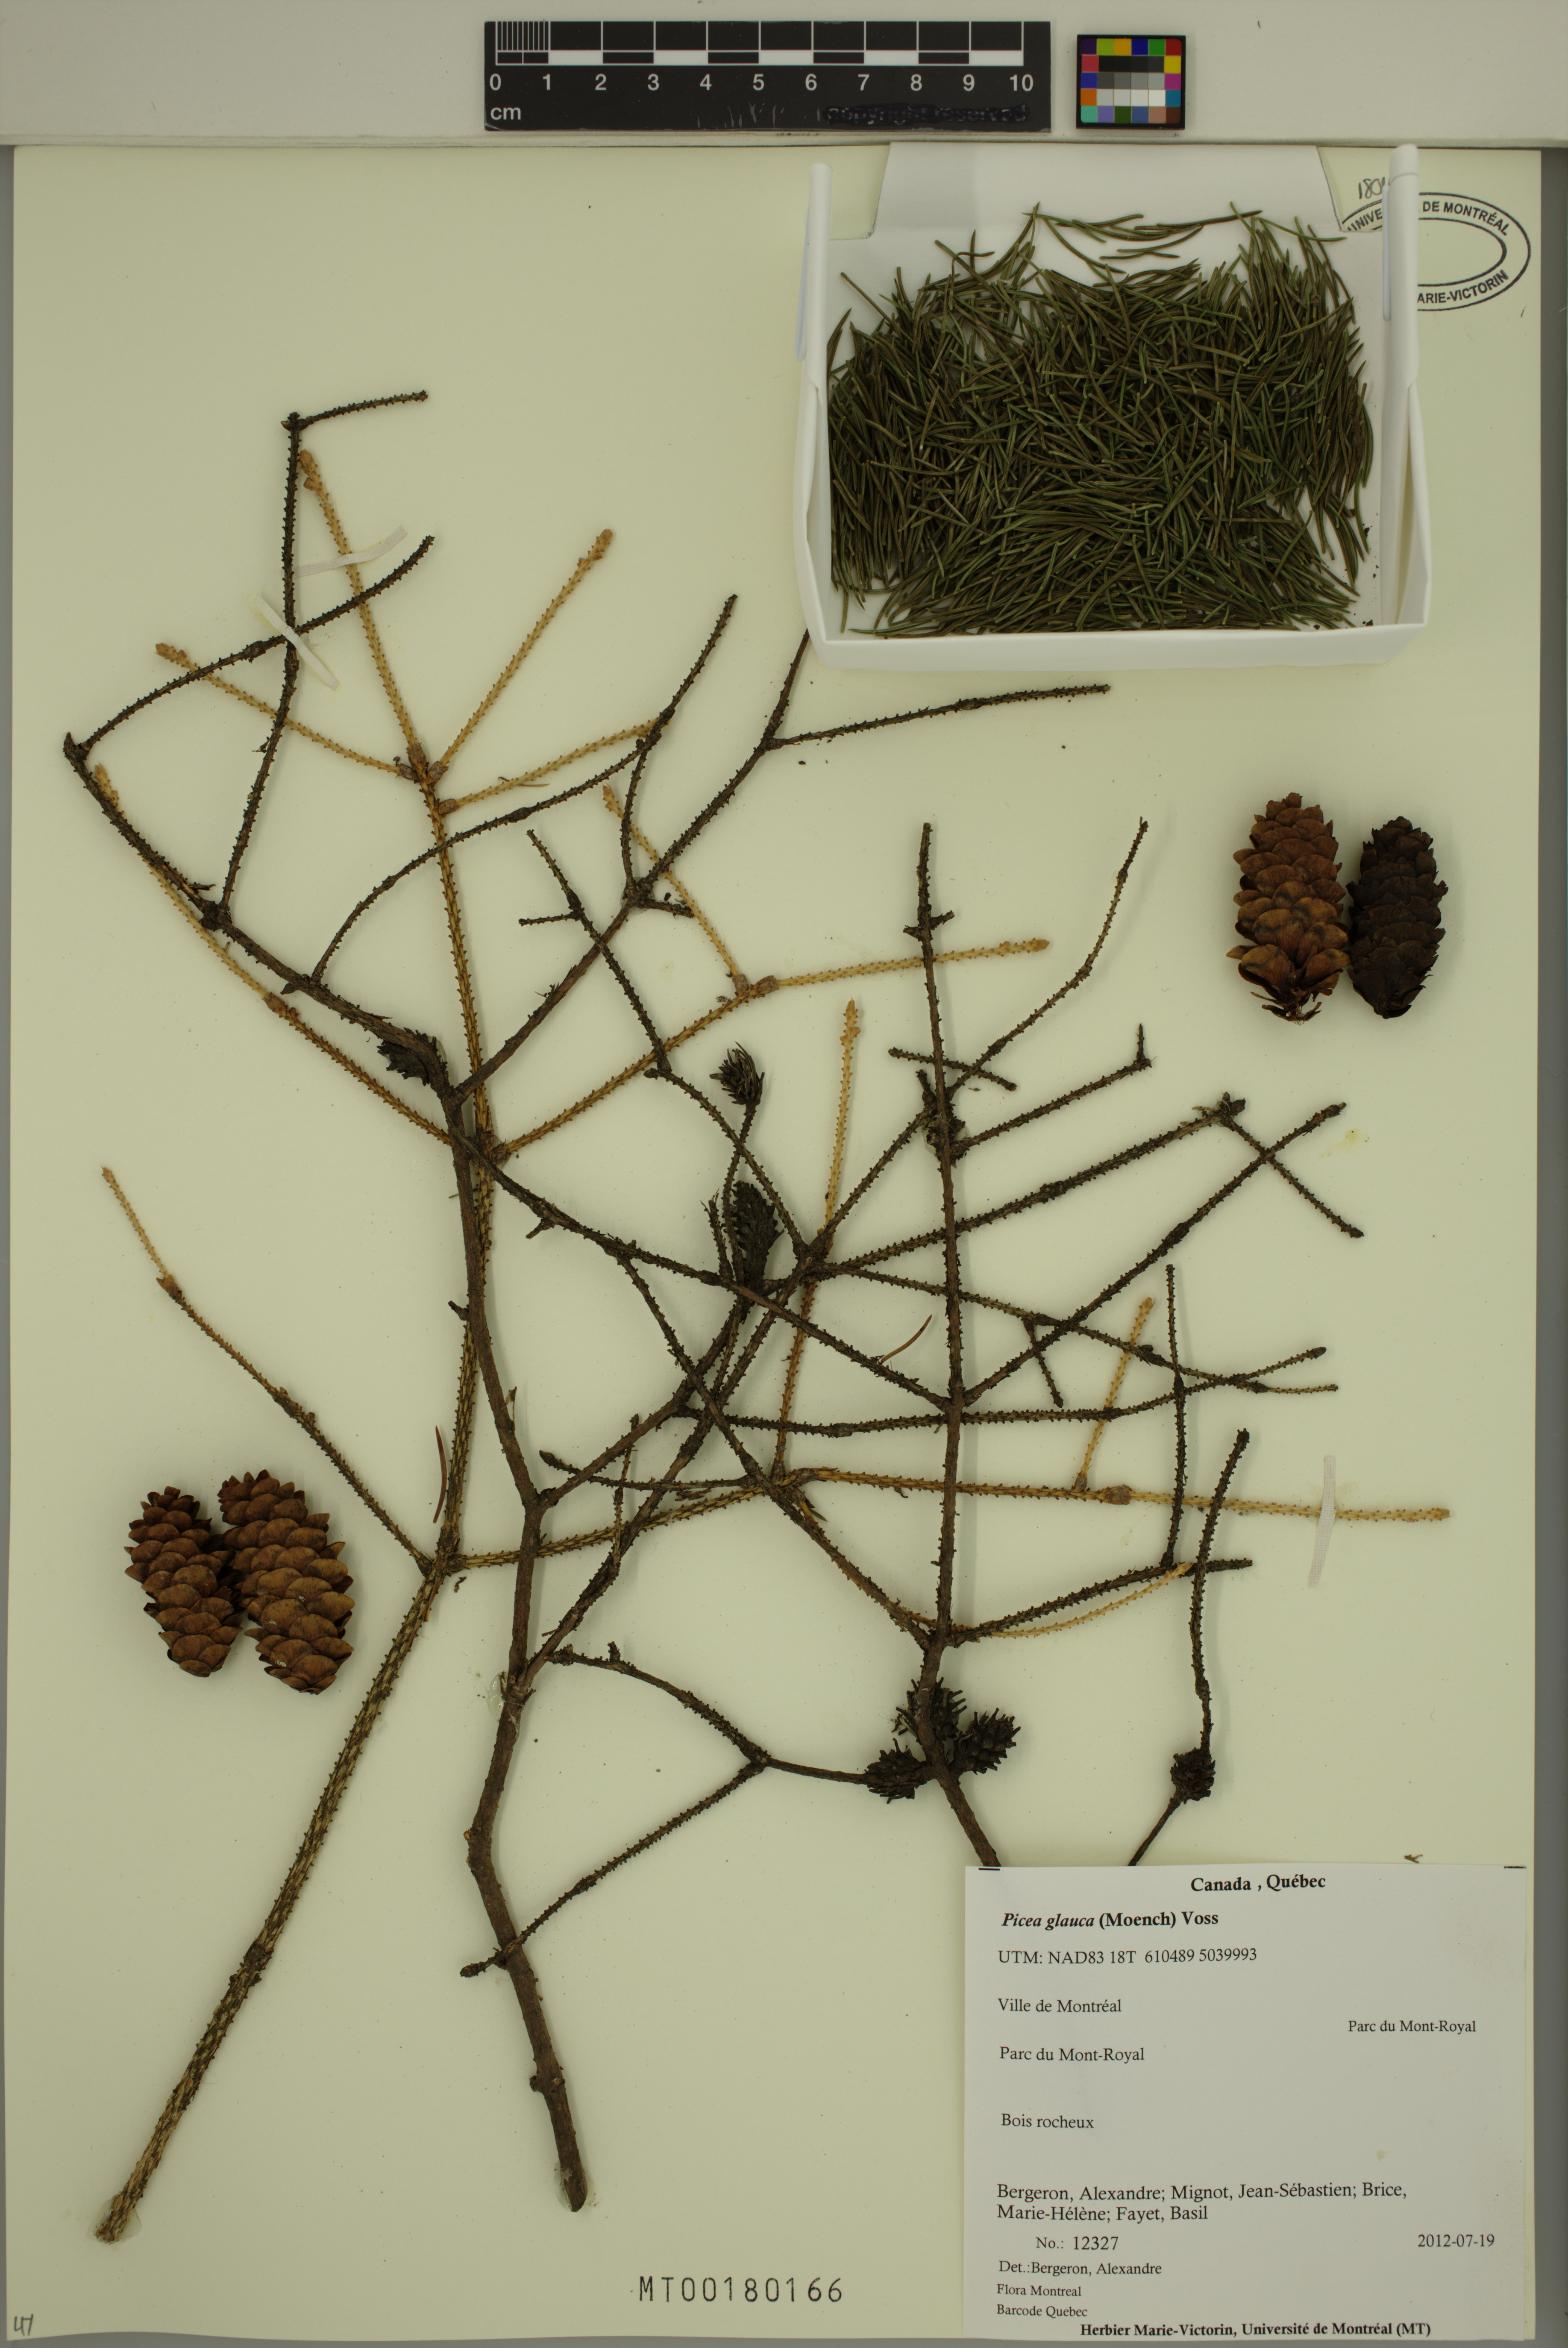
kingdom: Plantae
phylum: Tracheophyta
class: Pinopsida
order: Pinales
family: Pinaceae
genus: Picea
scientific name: Picea glauca
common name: White spruce
